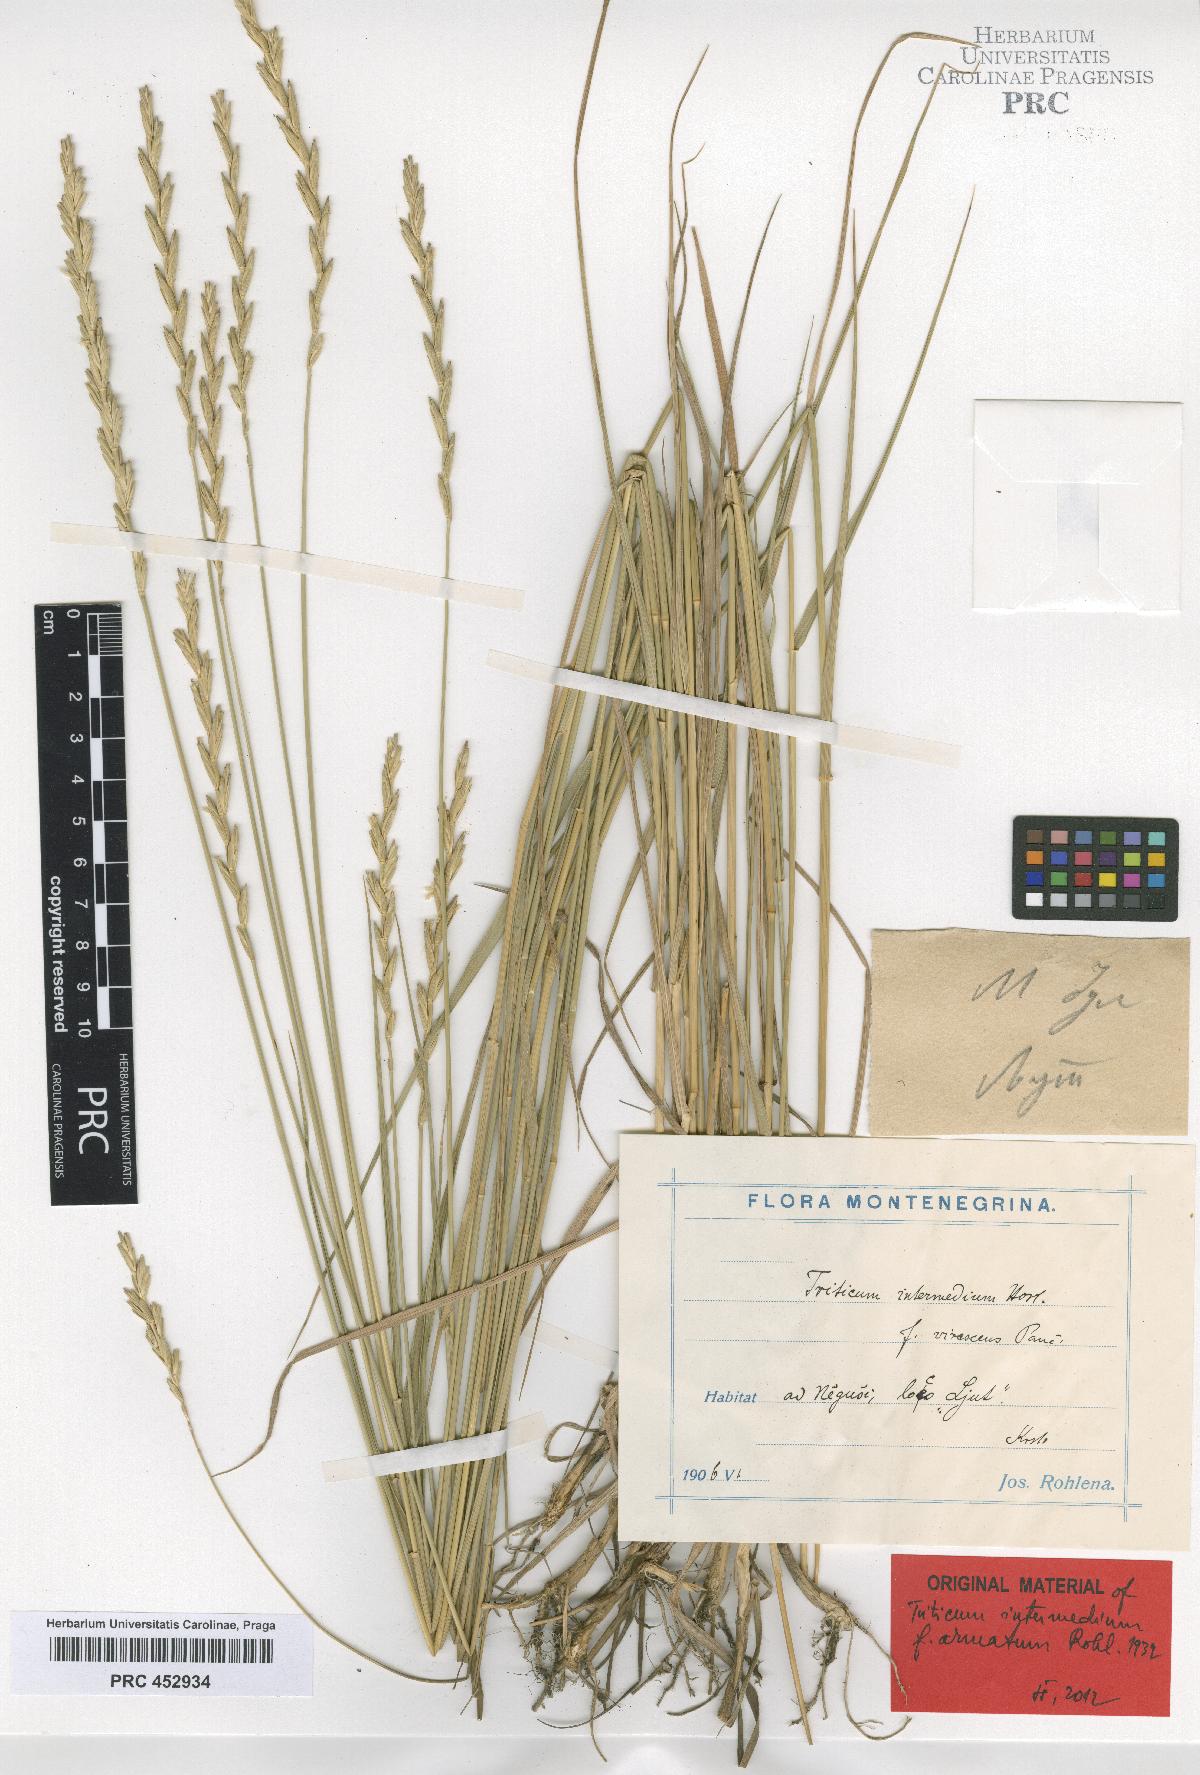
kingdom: Plantae
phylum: Tracheophyta
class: Liliopsida
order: Poales
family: Poaceae
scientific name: Poaceae
